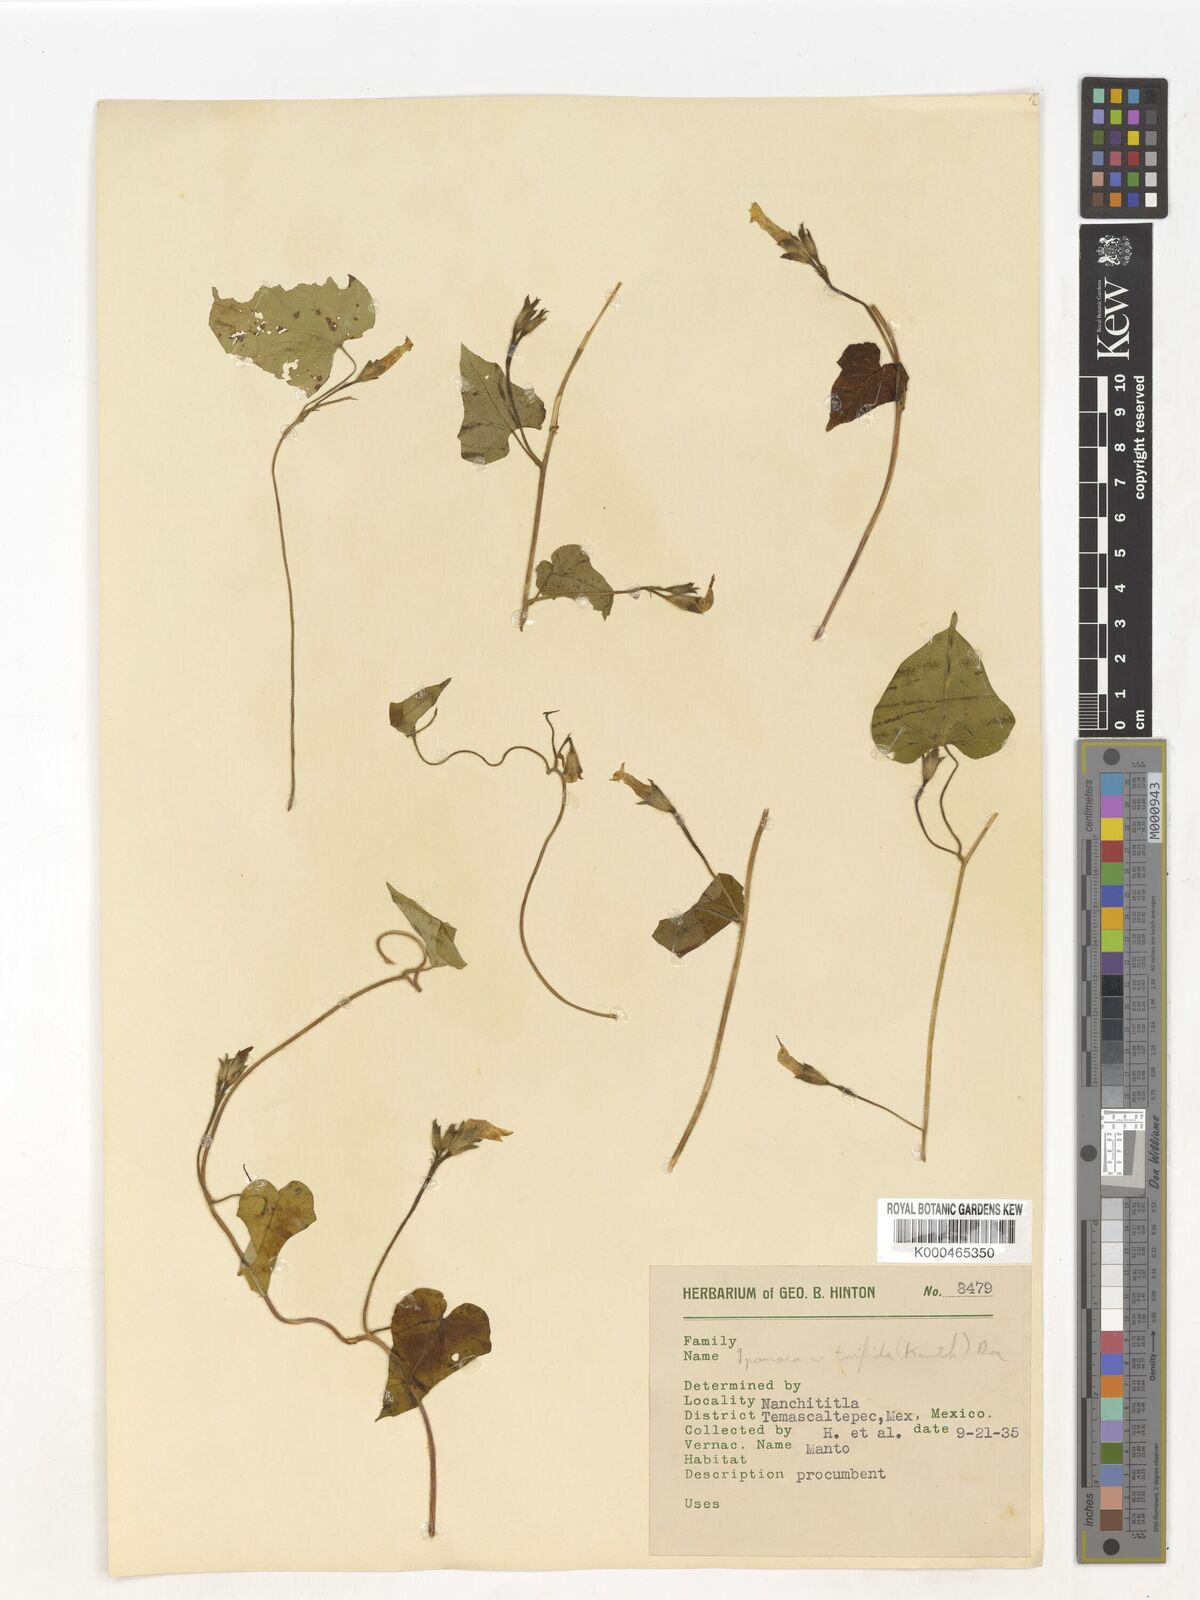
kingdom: Plantae
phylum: Tracheophyta
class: Magnoliopsida
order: Solanales
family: Convolvulaceae
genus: Ipomoea
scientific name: Ipomoea trifida
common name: Cotton morningglory
